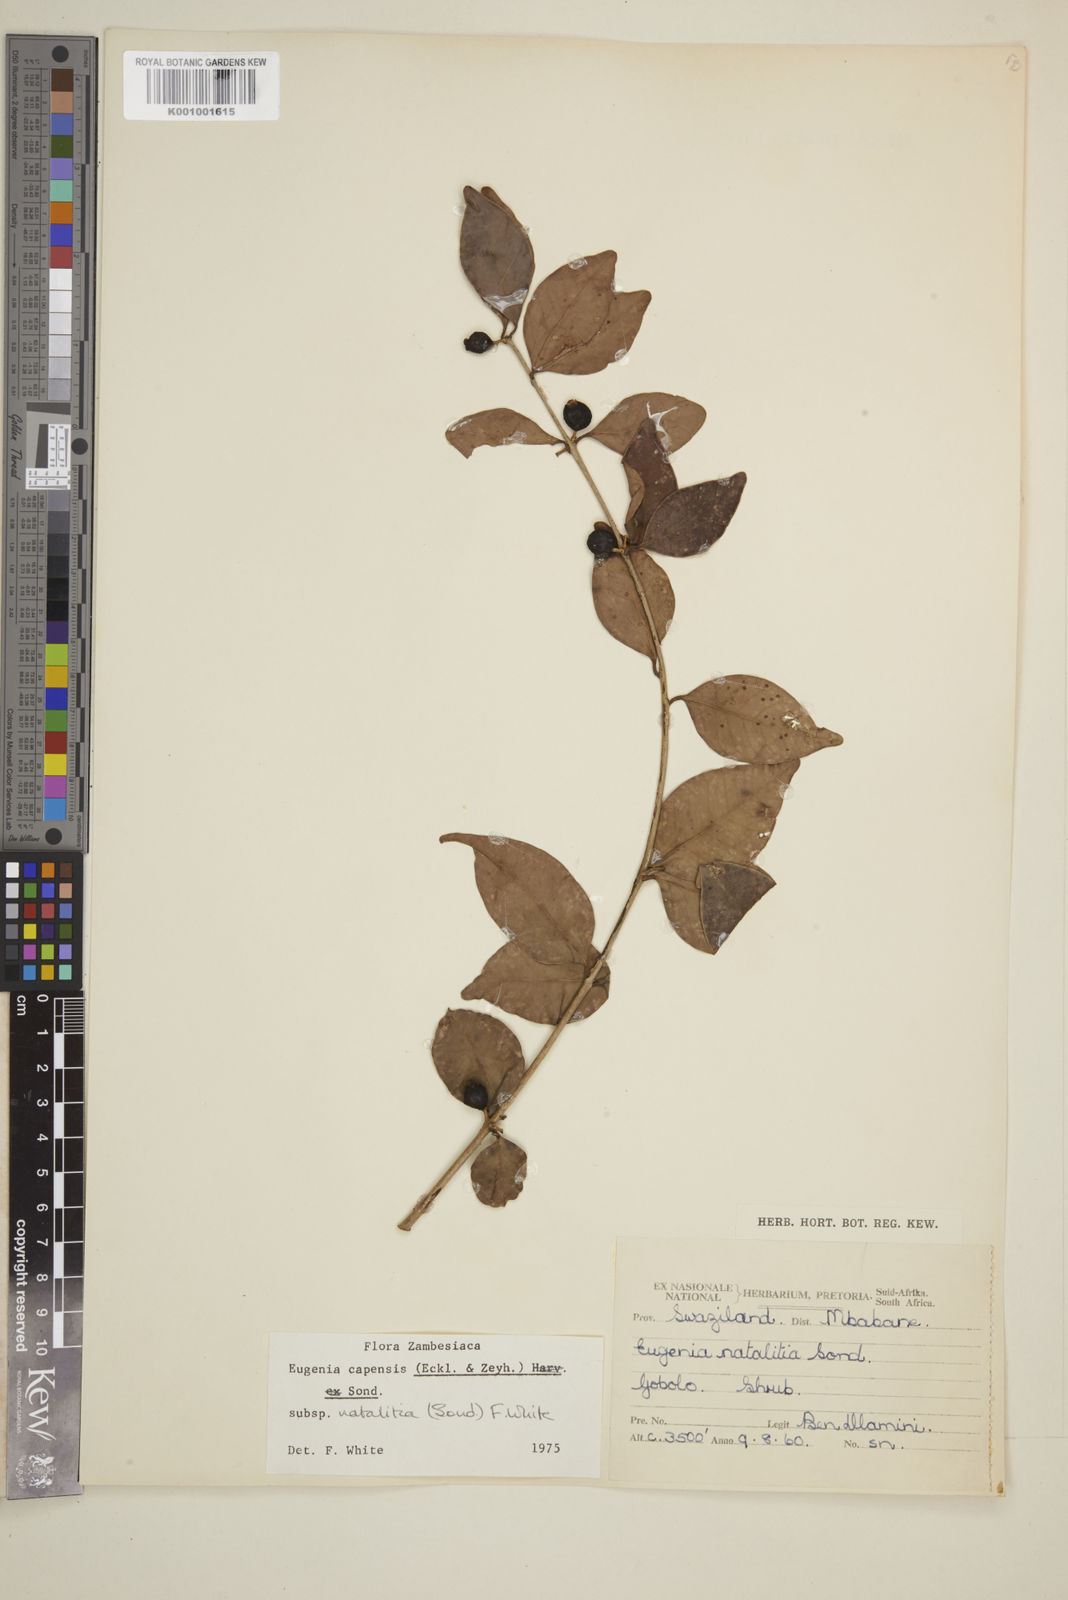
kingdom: Plantae
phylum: Tracheophyta
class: Magnoliopsida
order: Myrtales
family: Myrtaceae
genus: Eugenia
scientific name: Eugenia natalitia
